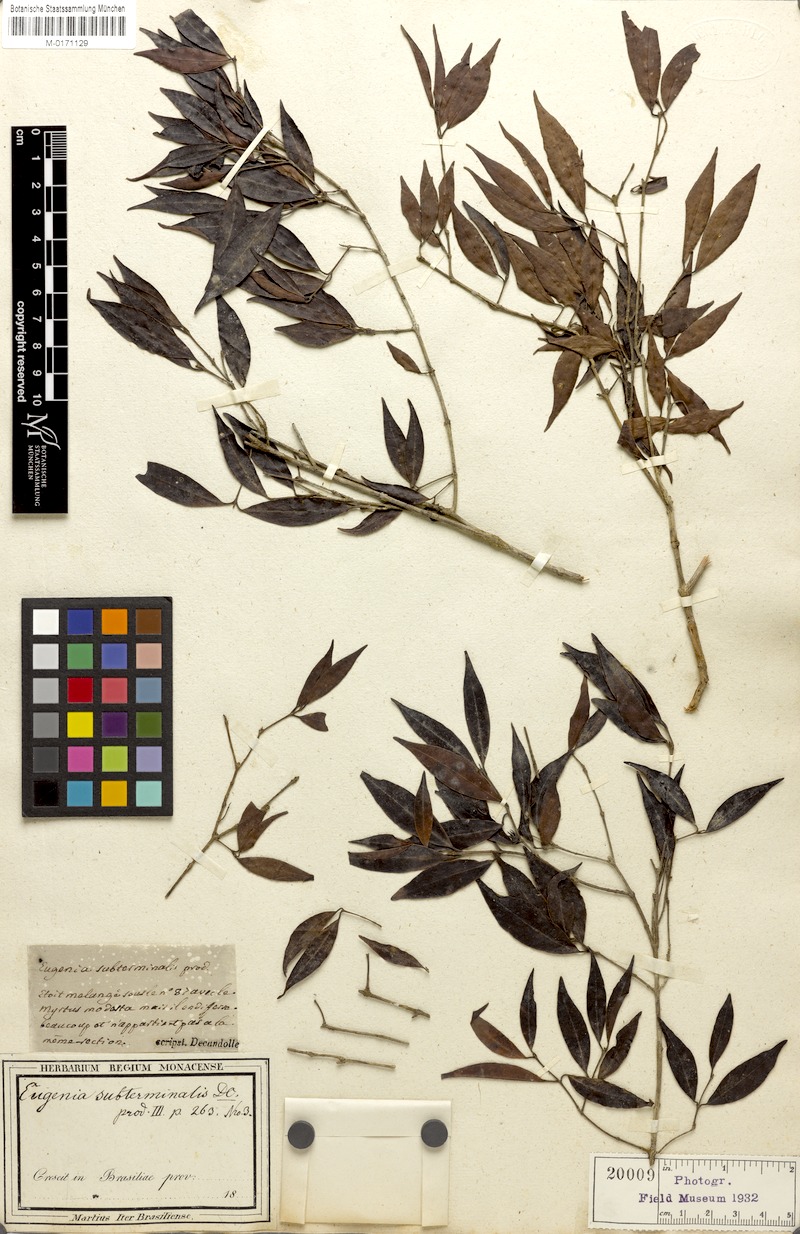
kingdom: Plantae
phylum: Tracheophyta
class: Magnoliopsida
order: Myrtales
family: Myrtaceae
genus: Eugenia
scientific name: Eugenia subterminalis
